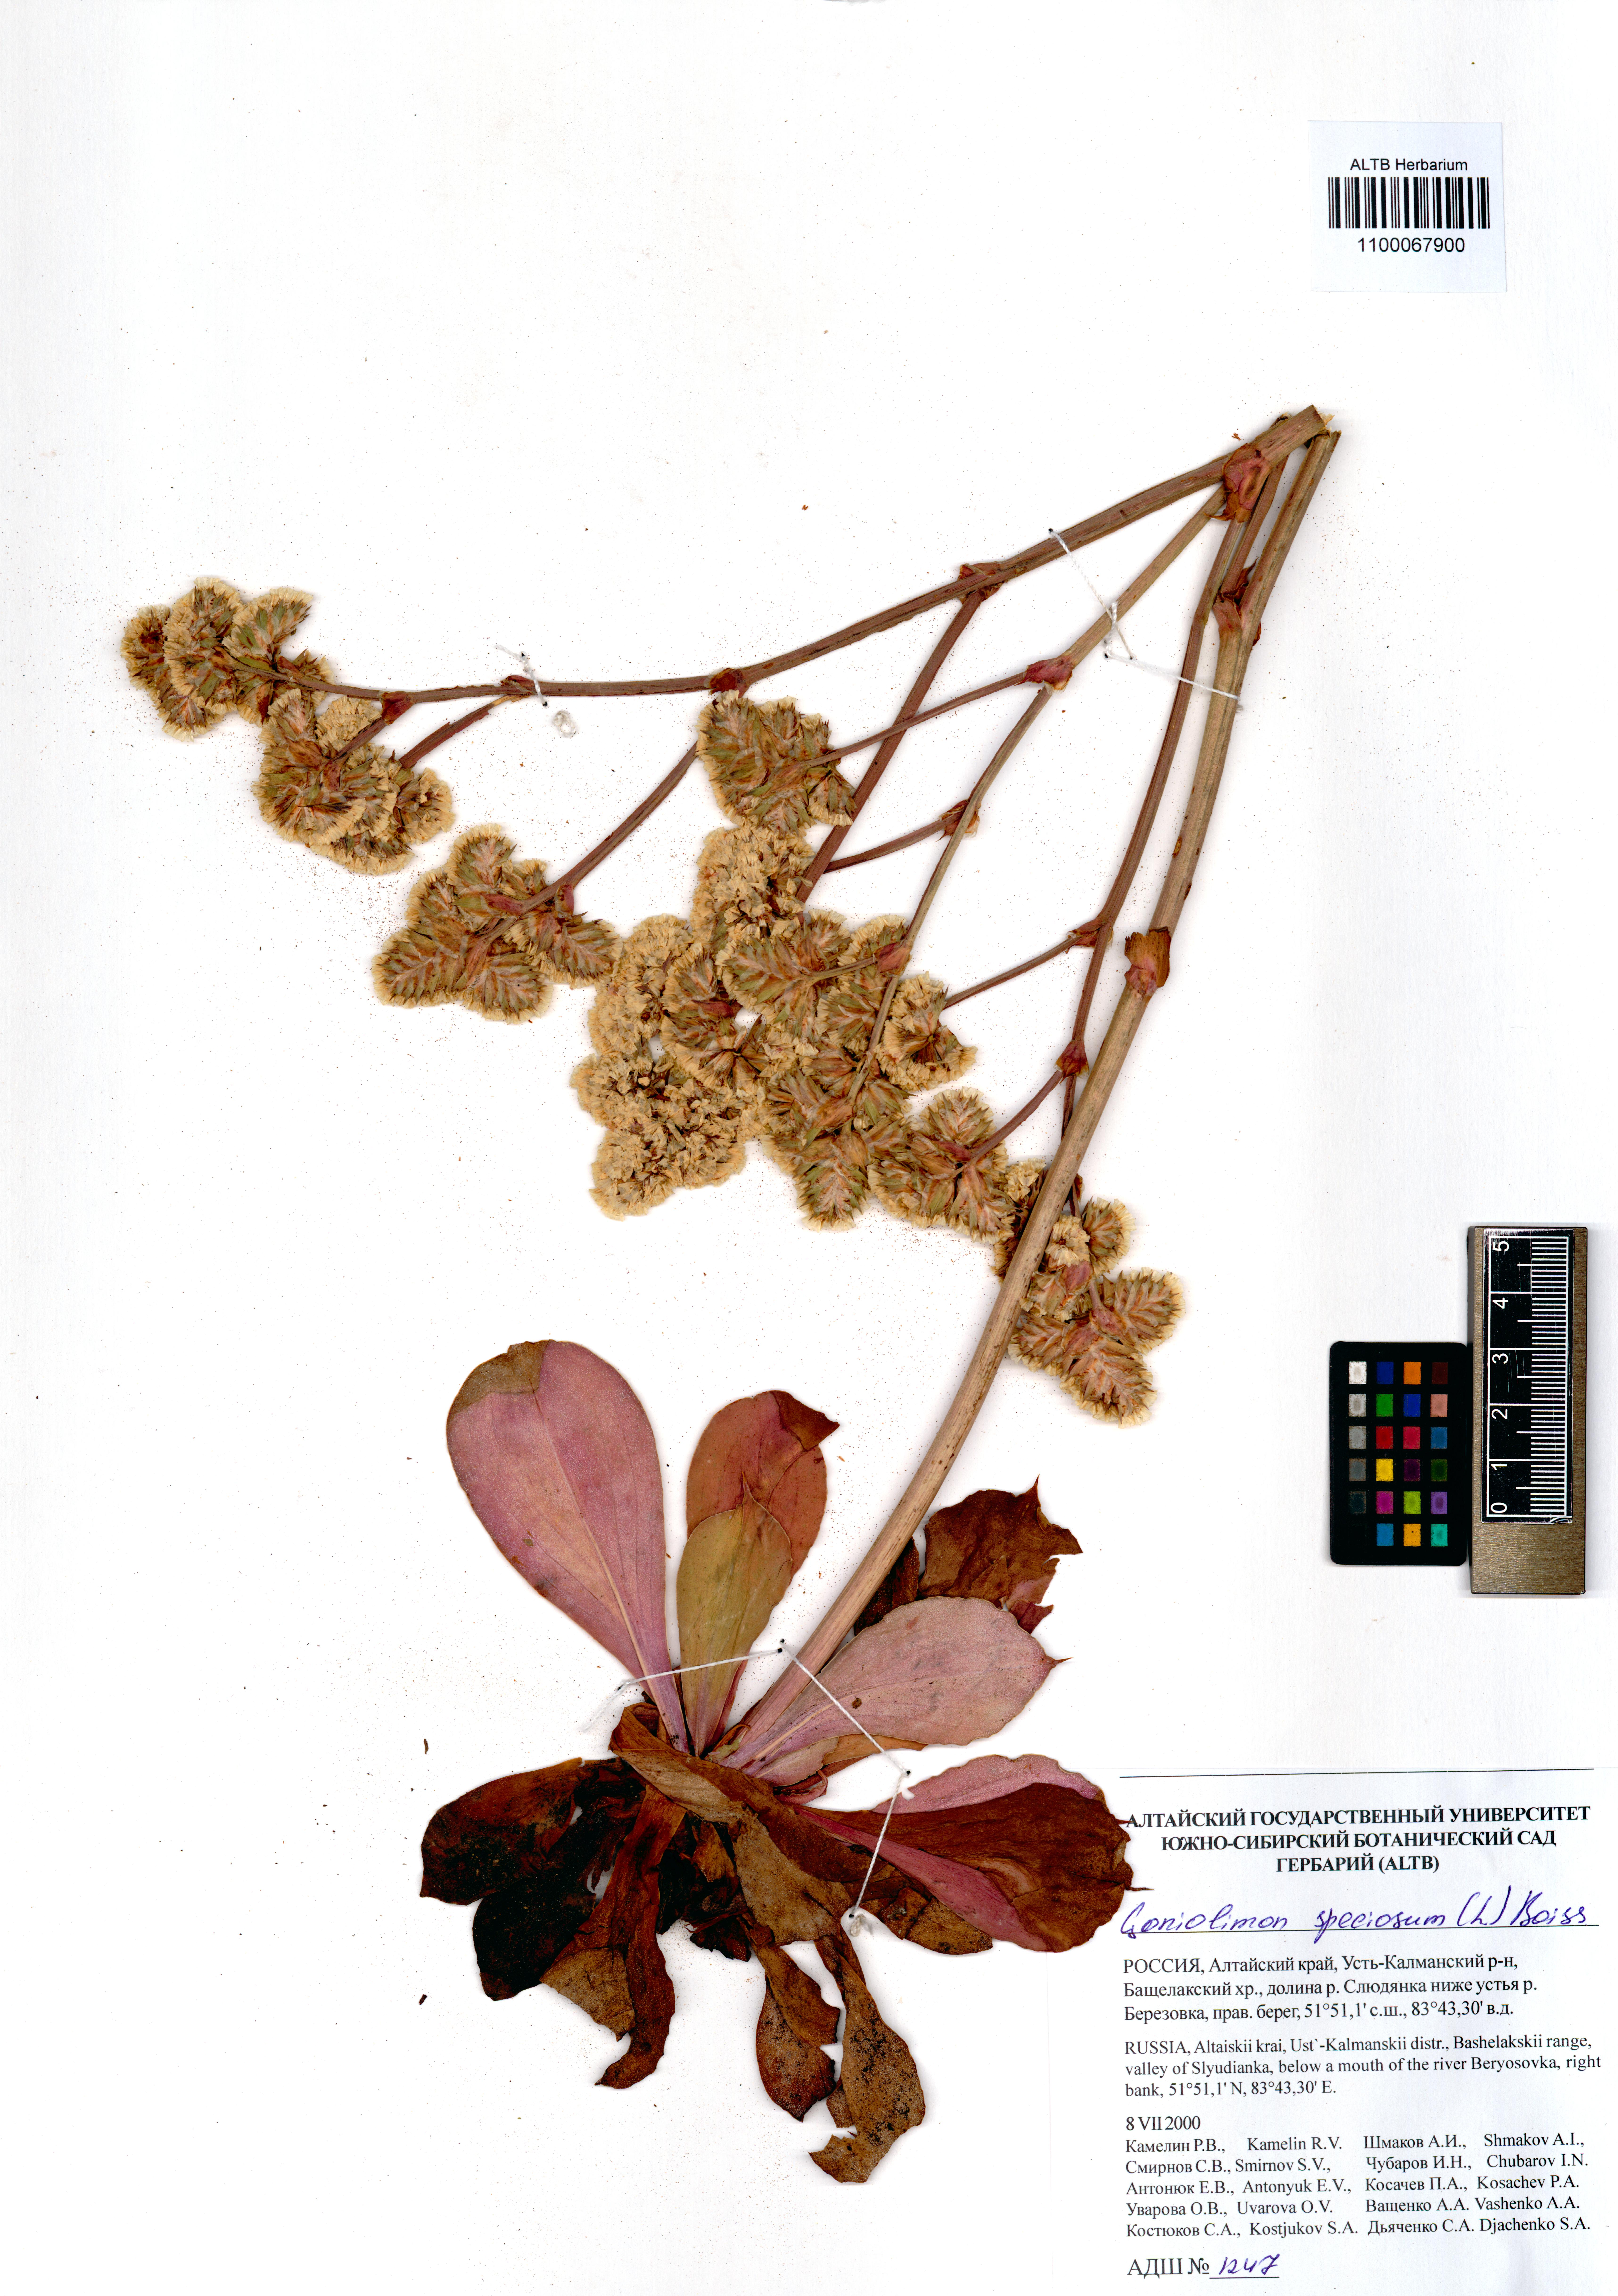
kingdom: Plantae
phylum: Tracheophyta
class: Magnoliopsida
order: Caryophyllales
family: Plumbaginaceae
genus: Goniolimon
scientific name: Goniolimon speciosum
